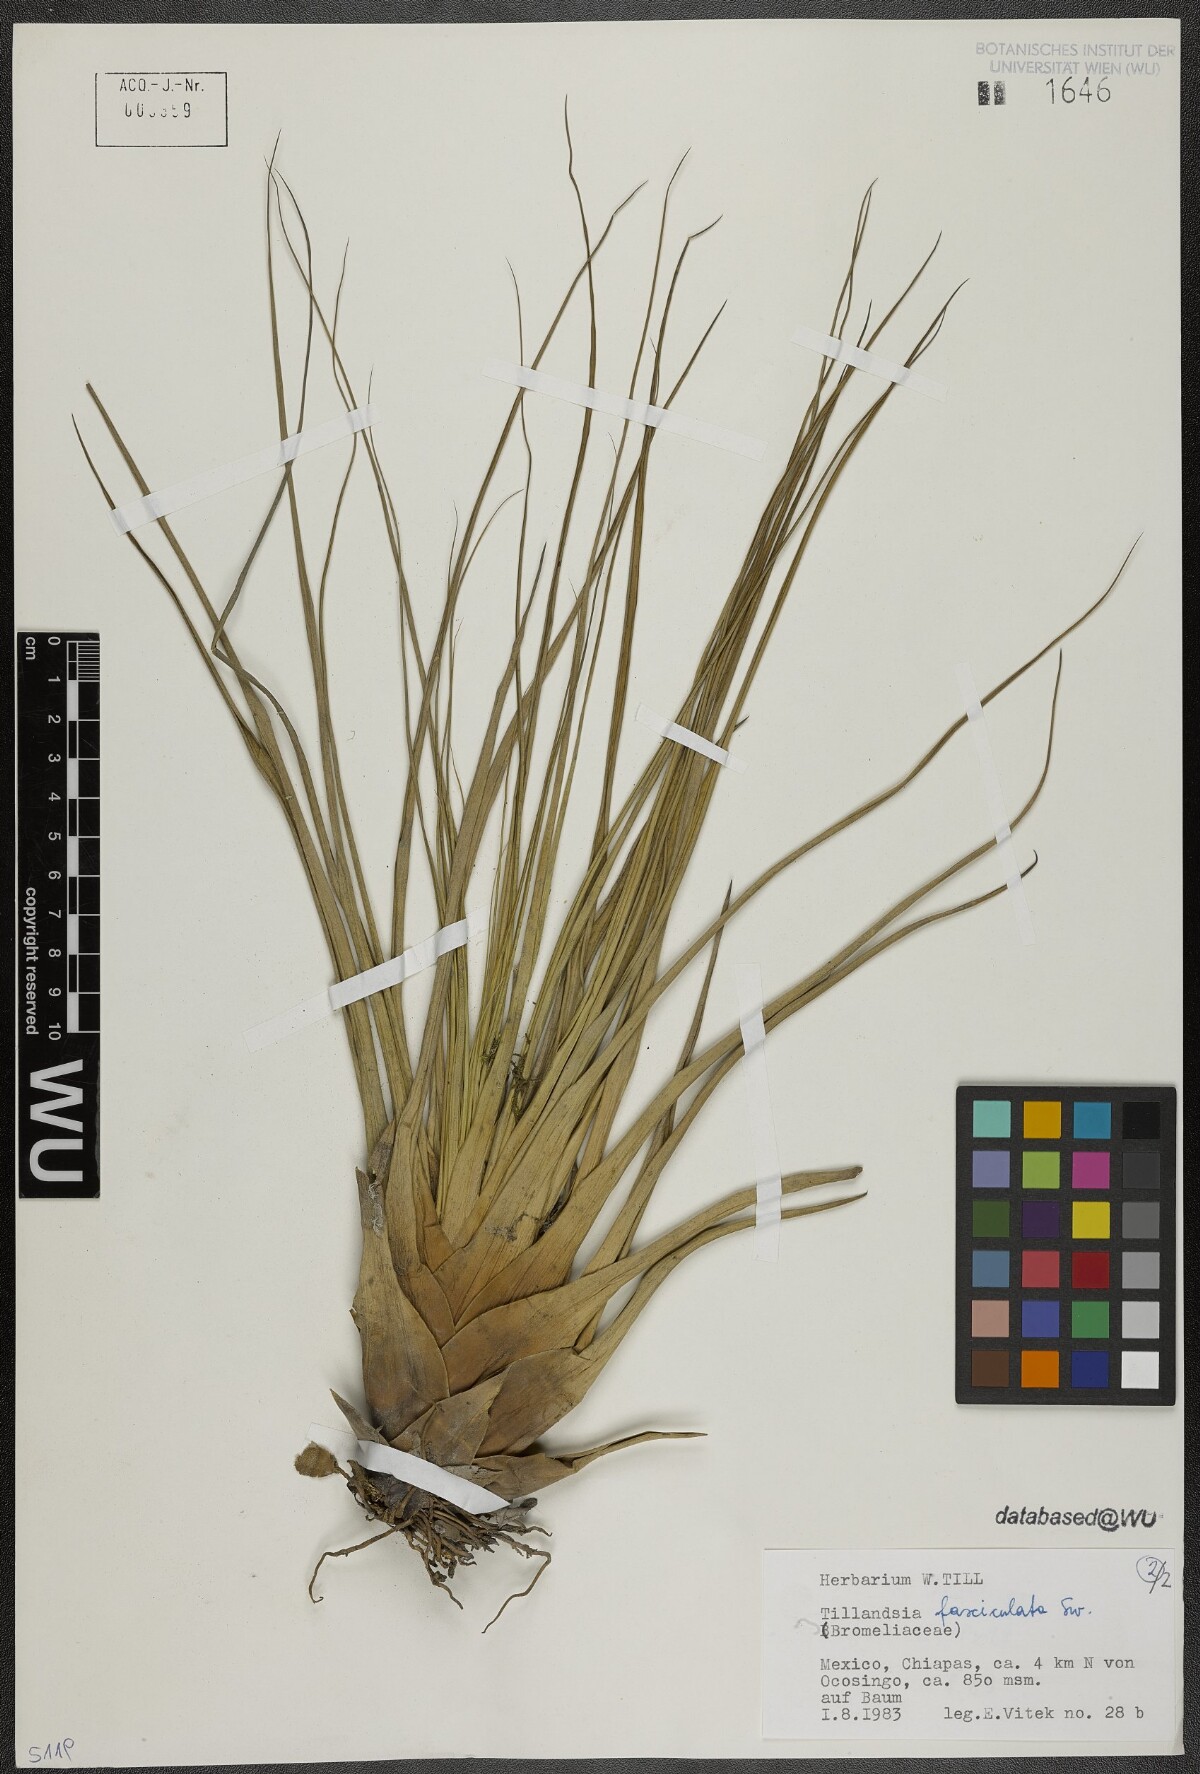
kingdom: Plantae
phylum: Tracheophyta
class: Liliopsida
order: Poales
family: Bromeliaceae
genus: Tillandsia
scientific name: Tillandsia fasciculata
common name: Giant airplant
